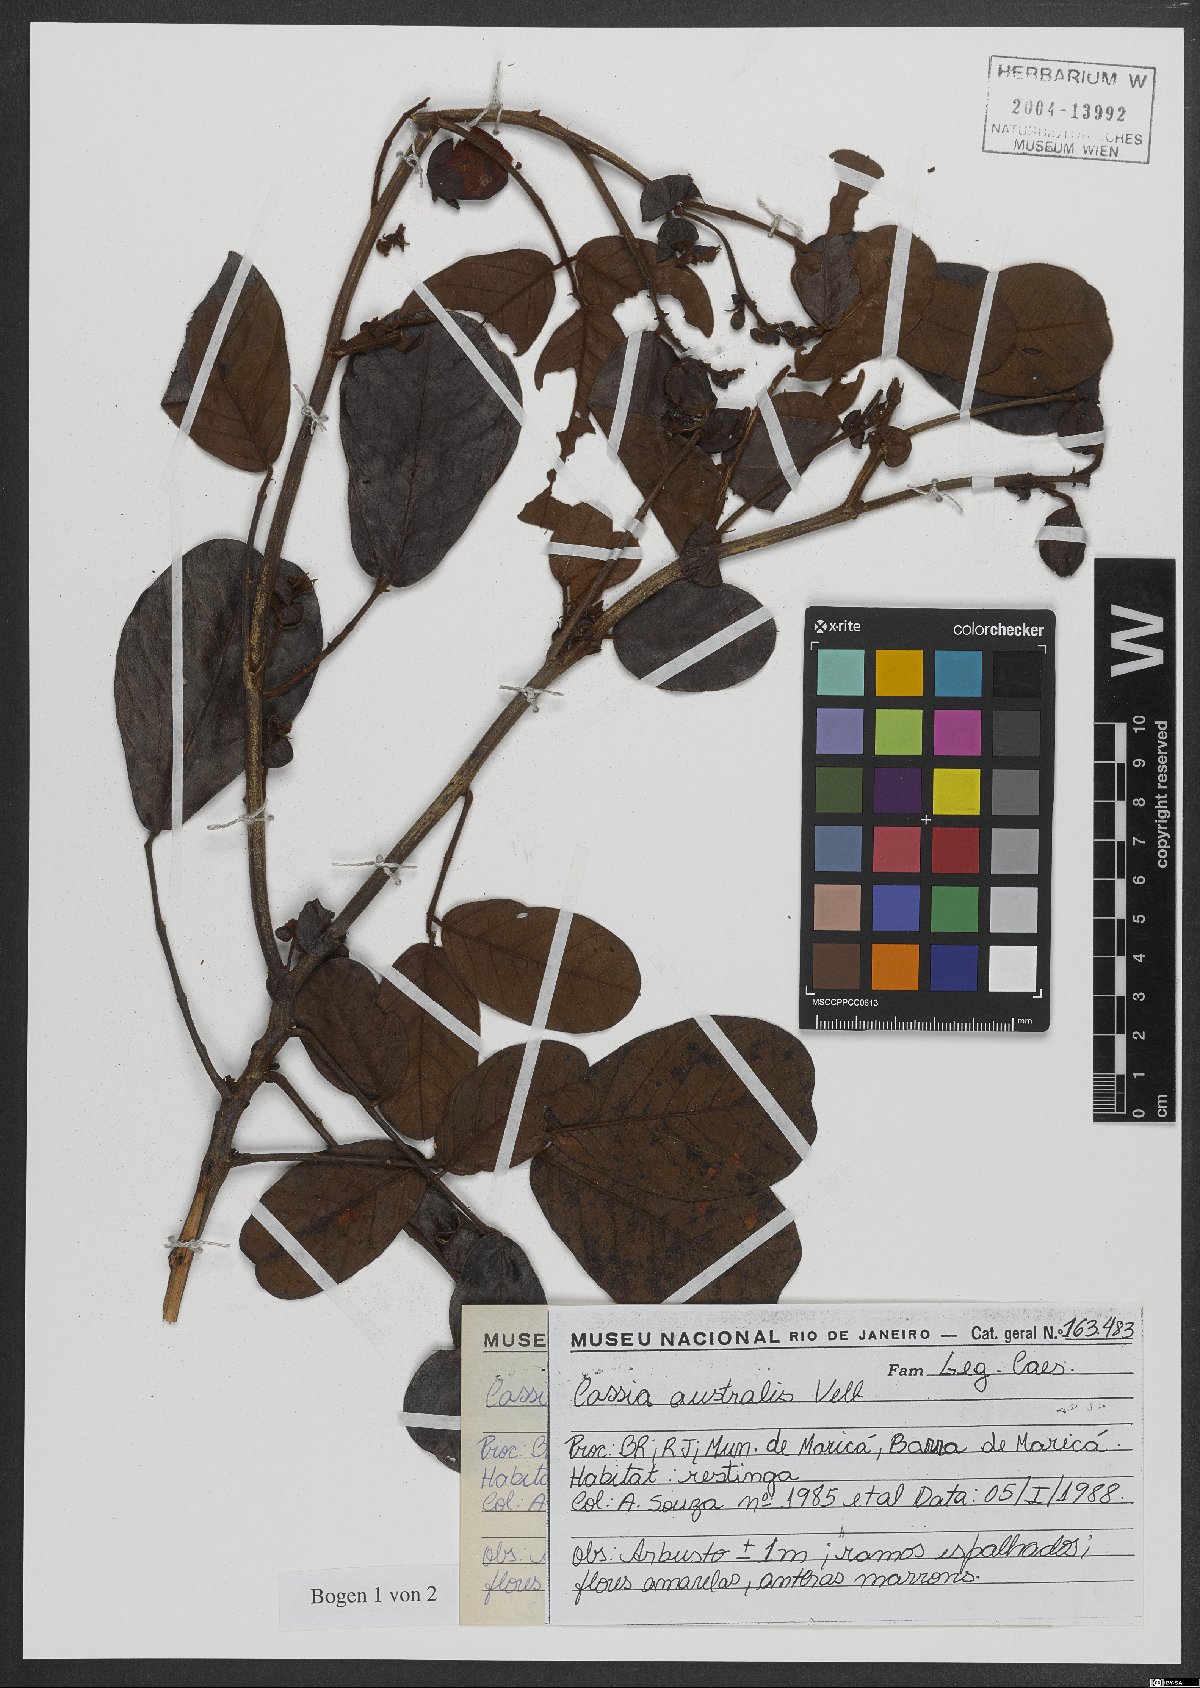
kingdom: Plantae
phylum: Tracheophyta
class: Magnoliopsida
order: Fabales
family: Fabaceae
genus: Senna
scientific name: Senna appendiculata
